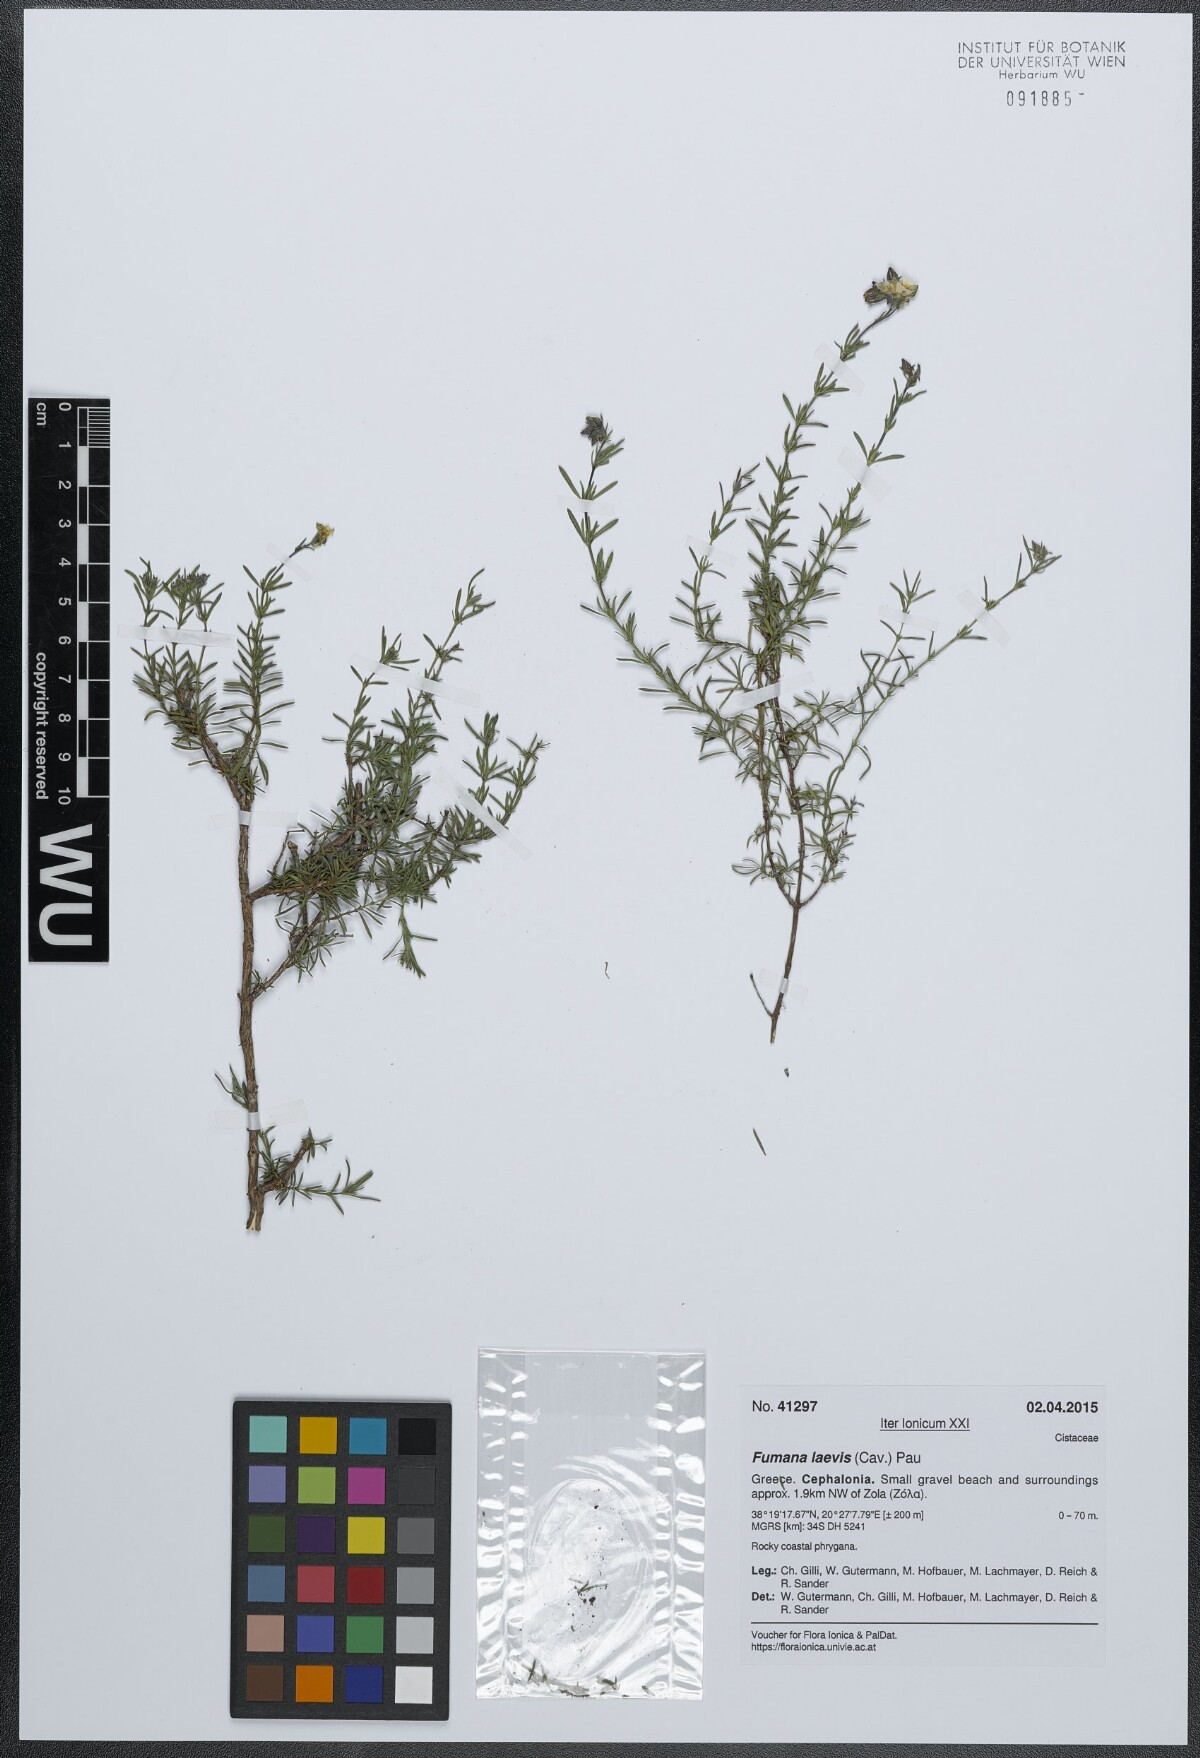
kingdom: Plantae
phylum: Tracheophyta
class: Magnoliopsida
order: Malvales
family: Cistaceae
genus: Fumana
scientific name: Fumana laevis
